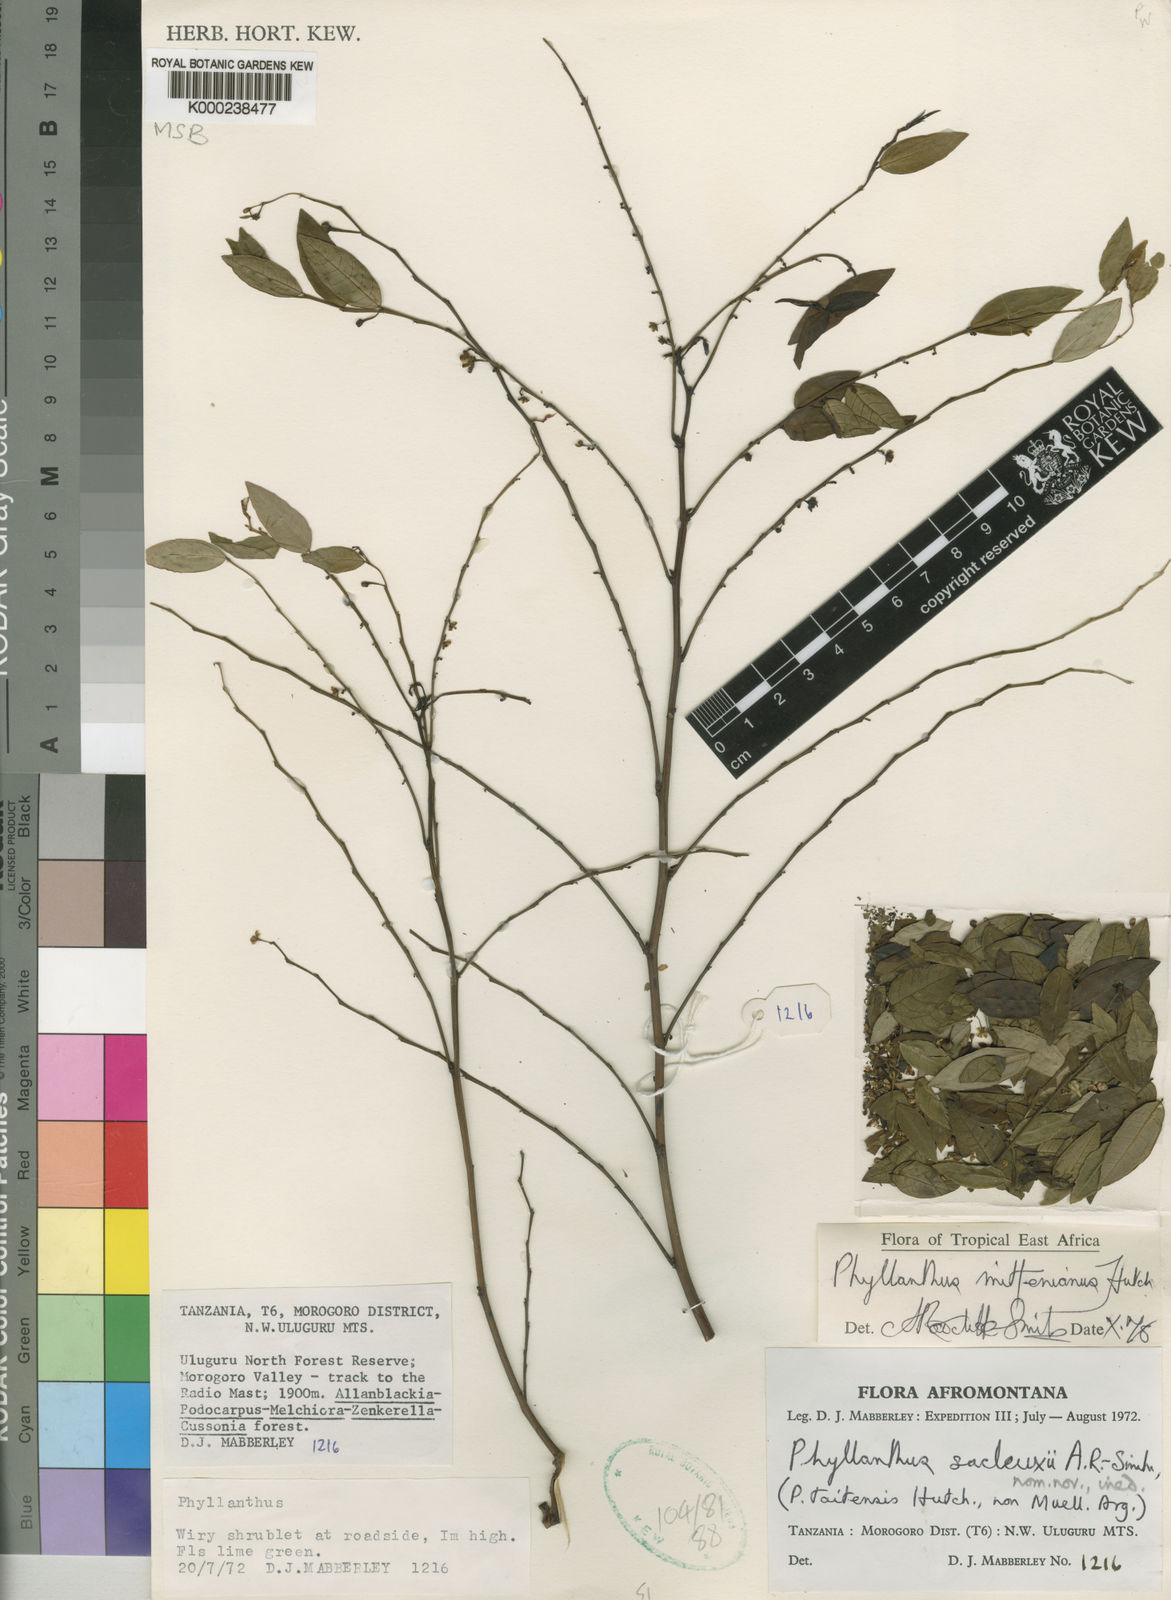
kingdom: Plantae
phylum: Tracheophyta
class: Magnoliopsida
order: Malpighiales
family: Phyllanthaceae
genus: Phyllanthus
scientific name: Phyllanthus mittenianus
